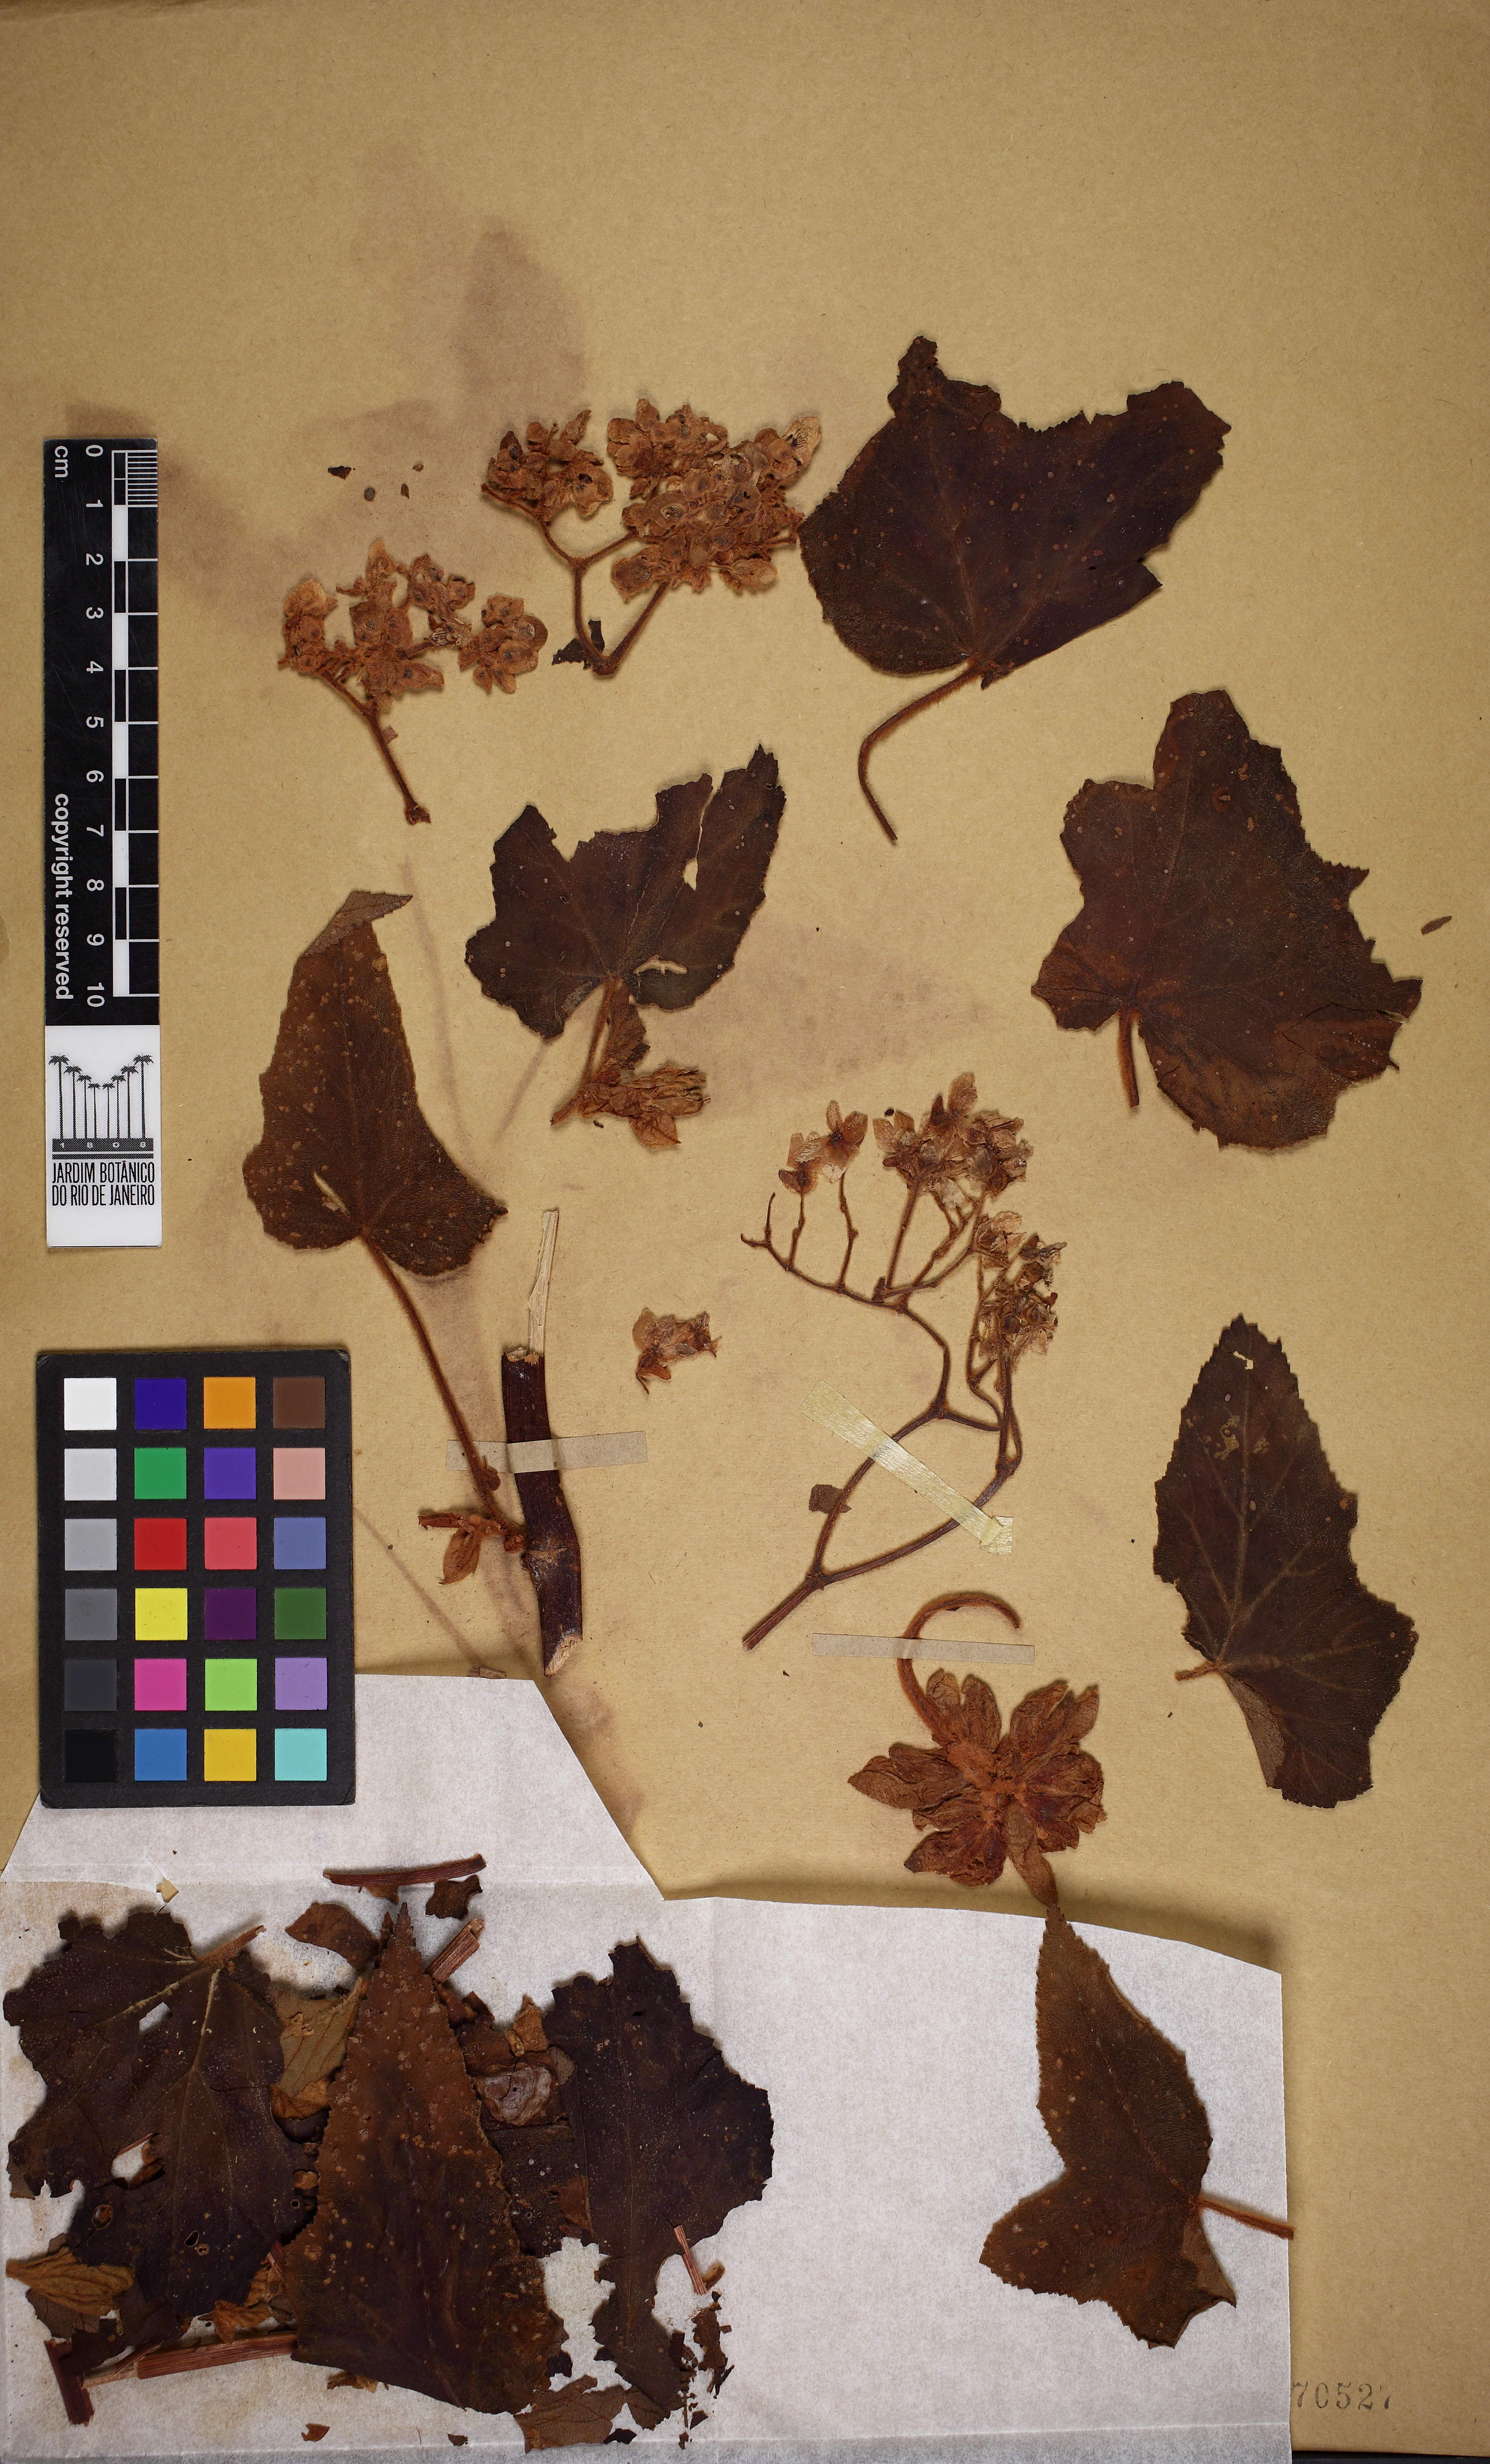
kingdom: Plantae
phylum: Tracheophyta
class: Magnoliopsida
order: Cucurbitales
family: Begoniaceae
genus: Begonia
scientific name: Begonia rufa
